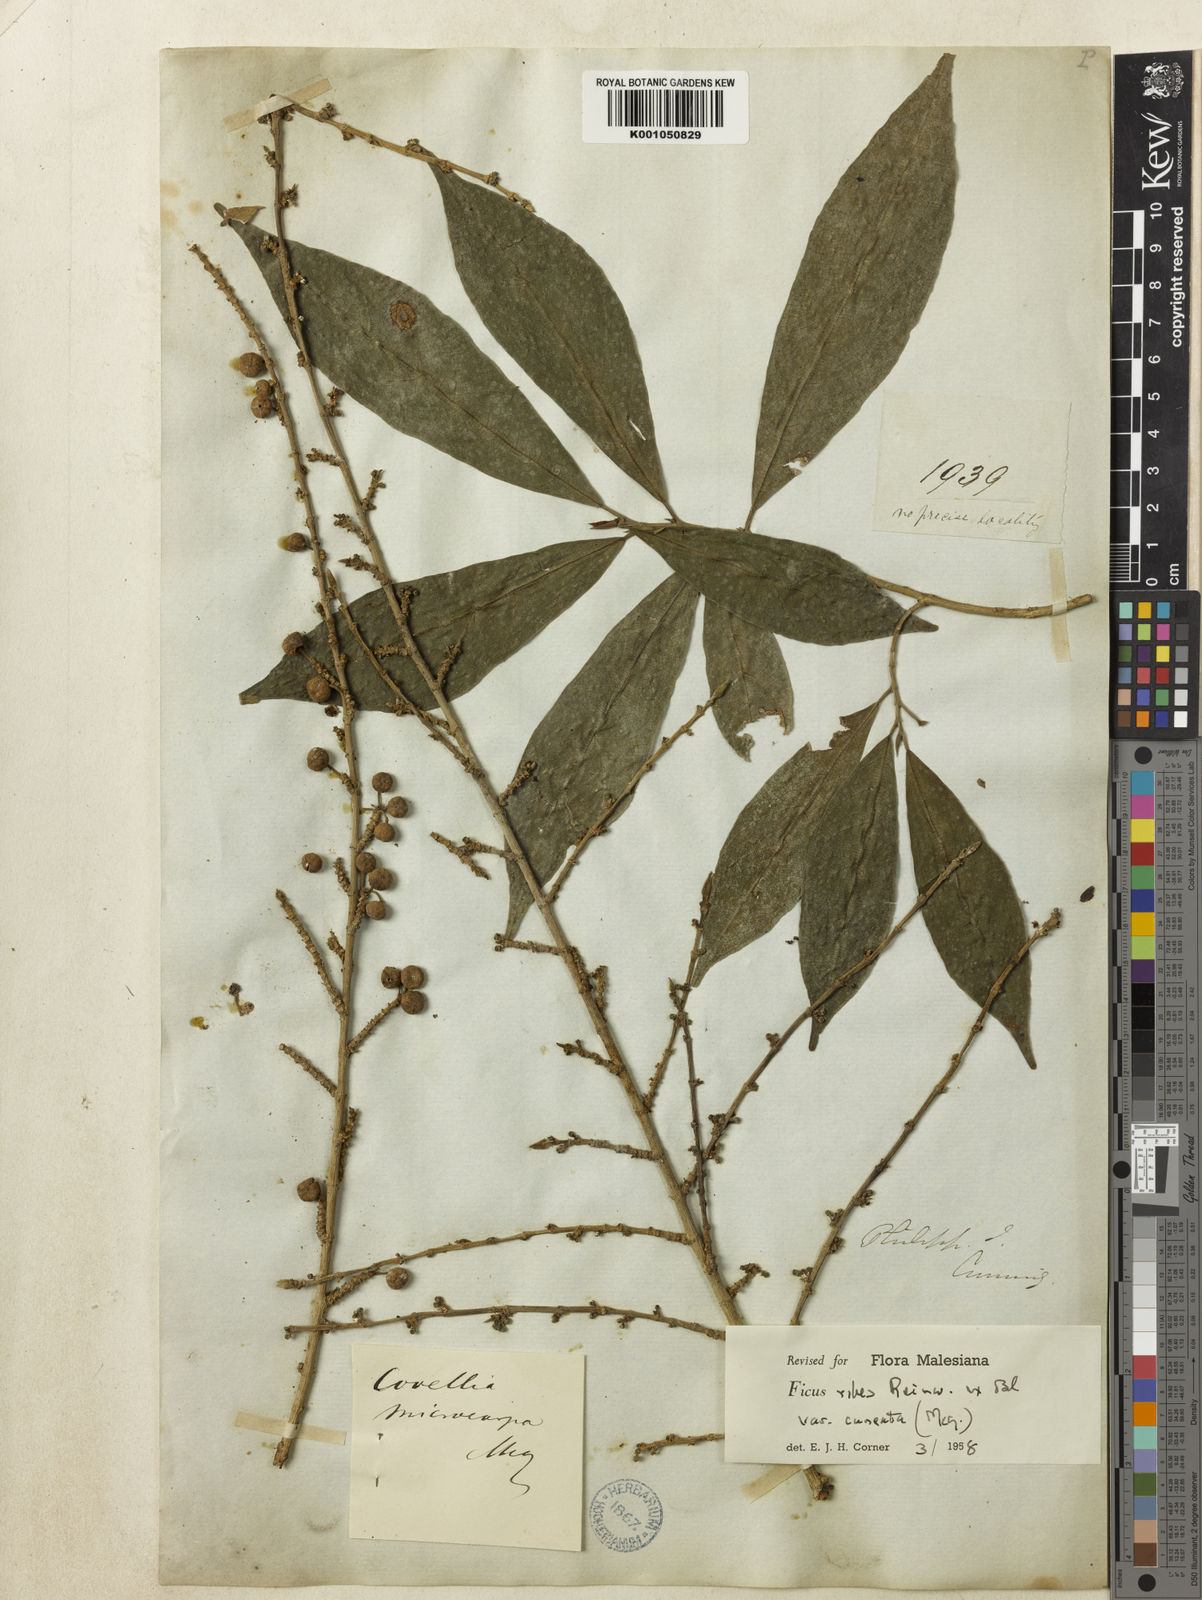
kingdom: Plantae
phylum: Tracheophyta
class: Magnoliopsida
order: Rosales
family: Moraceae
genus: Ficus
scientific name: Ficus
